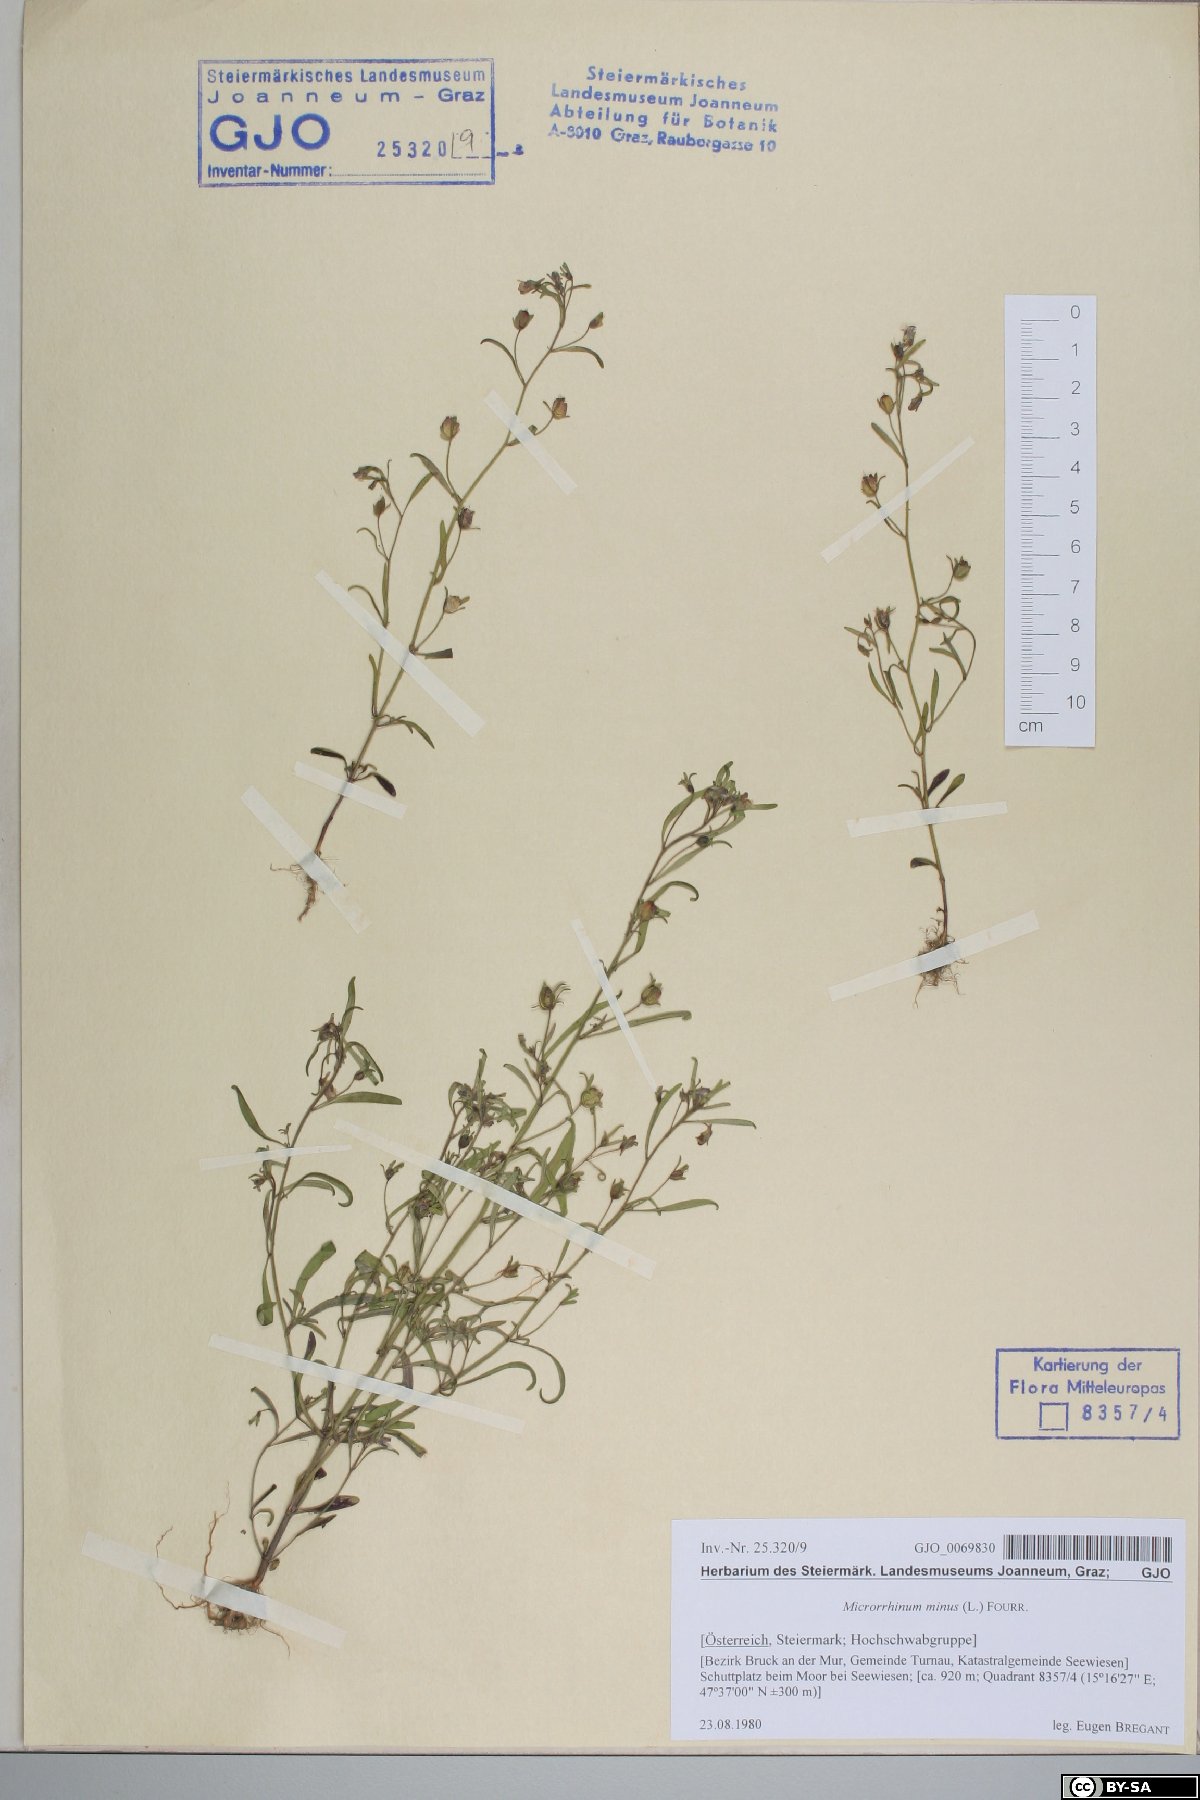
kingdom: Plantae
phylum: Tracheophyta
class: Magnoliopsida
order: Lamiales
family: Plantaginaceae
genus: Chaenorhinum
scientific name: Chaenorhinum minus
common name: Dwarf snapdragon
